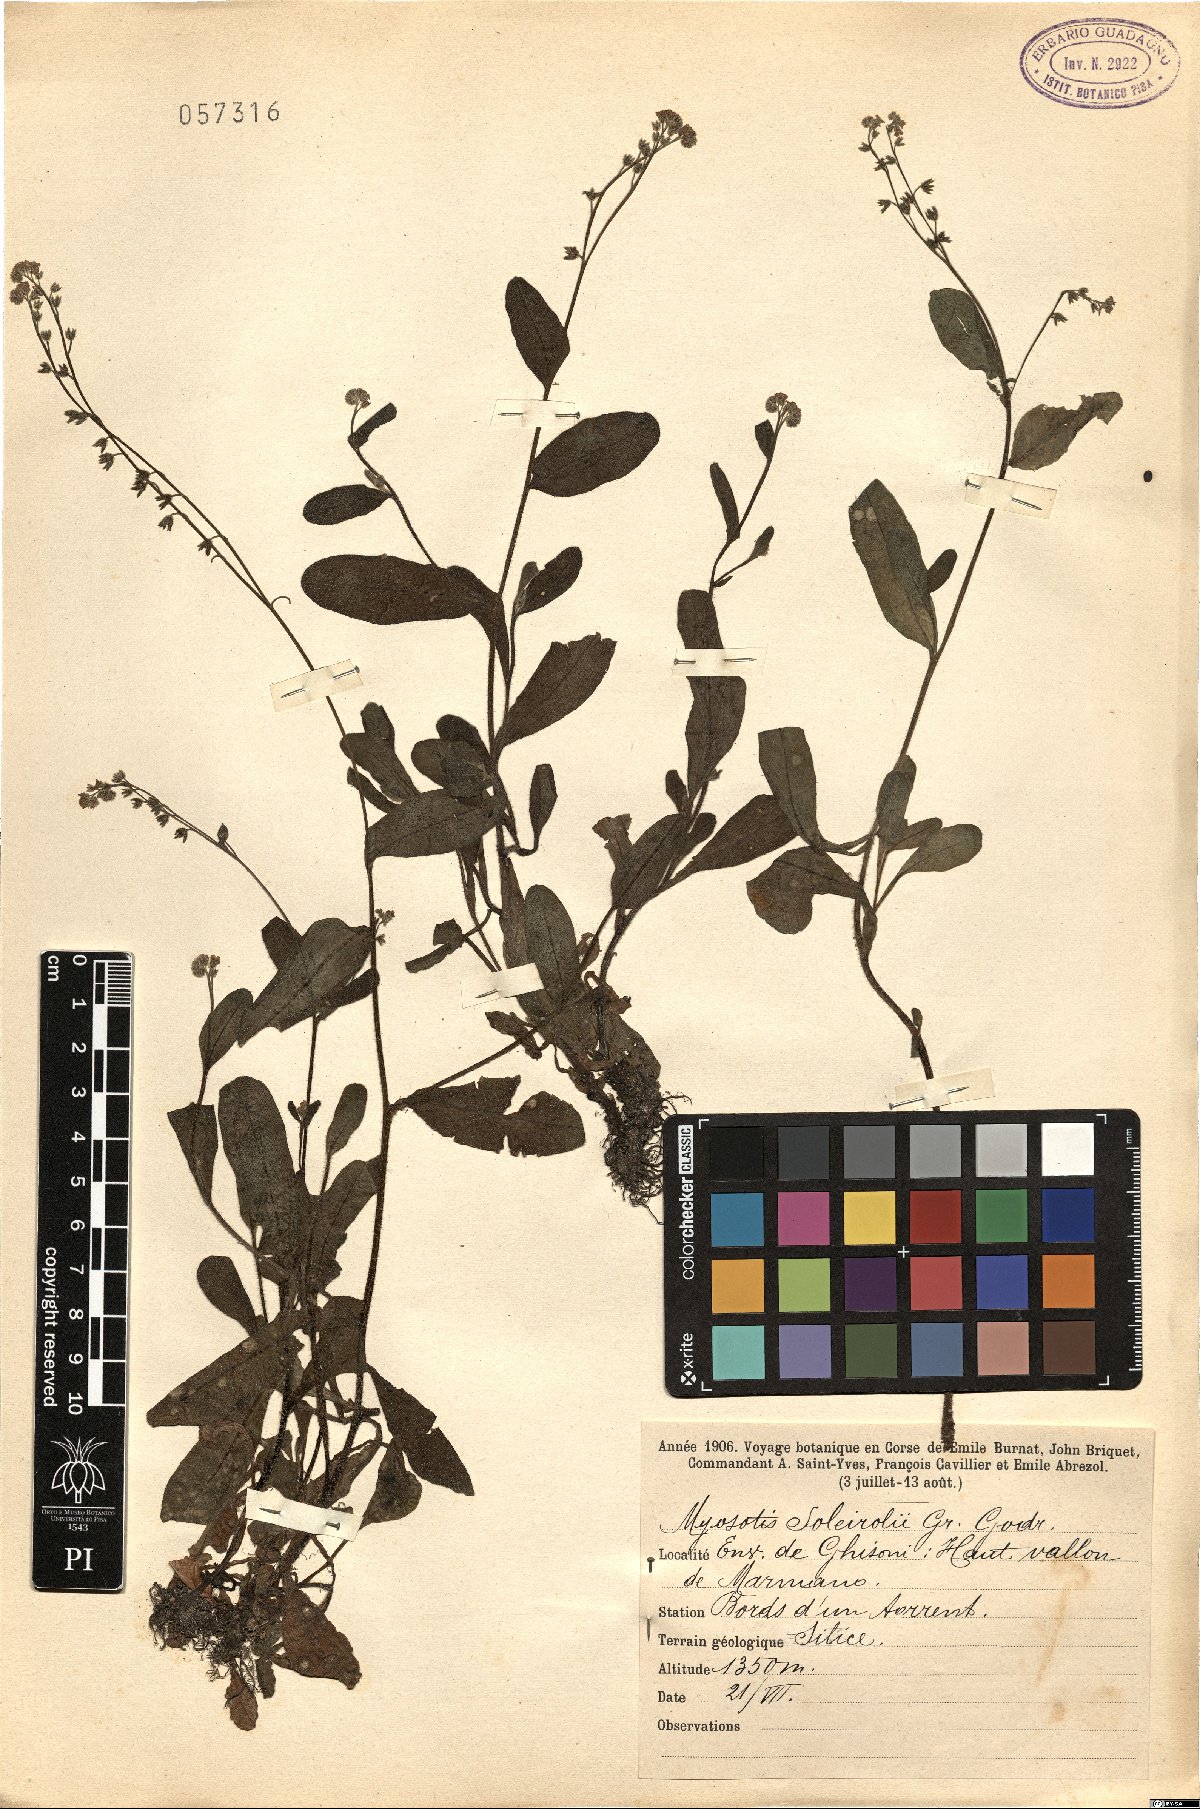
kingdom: Plantae
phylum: Tracheophyta
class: Magnoliopsida
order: Boraginales
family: Boraginaceae
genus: Myosotis
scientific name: Myosotis soleirolii
